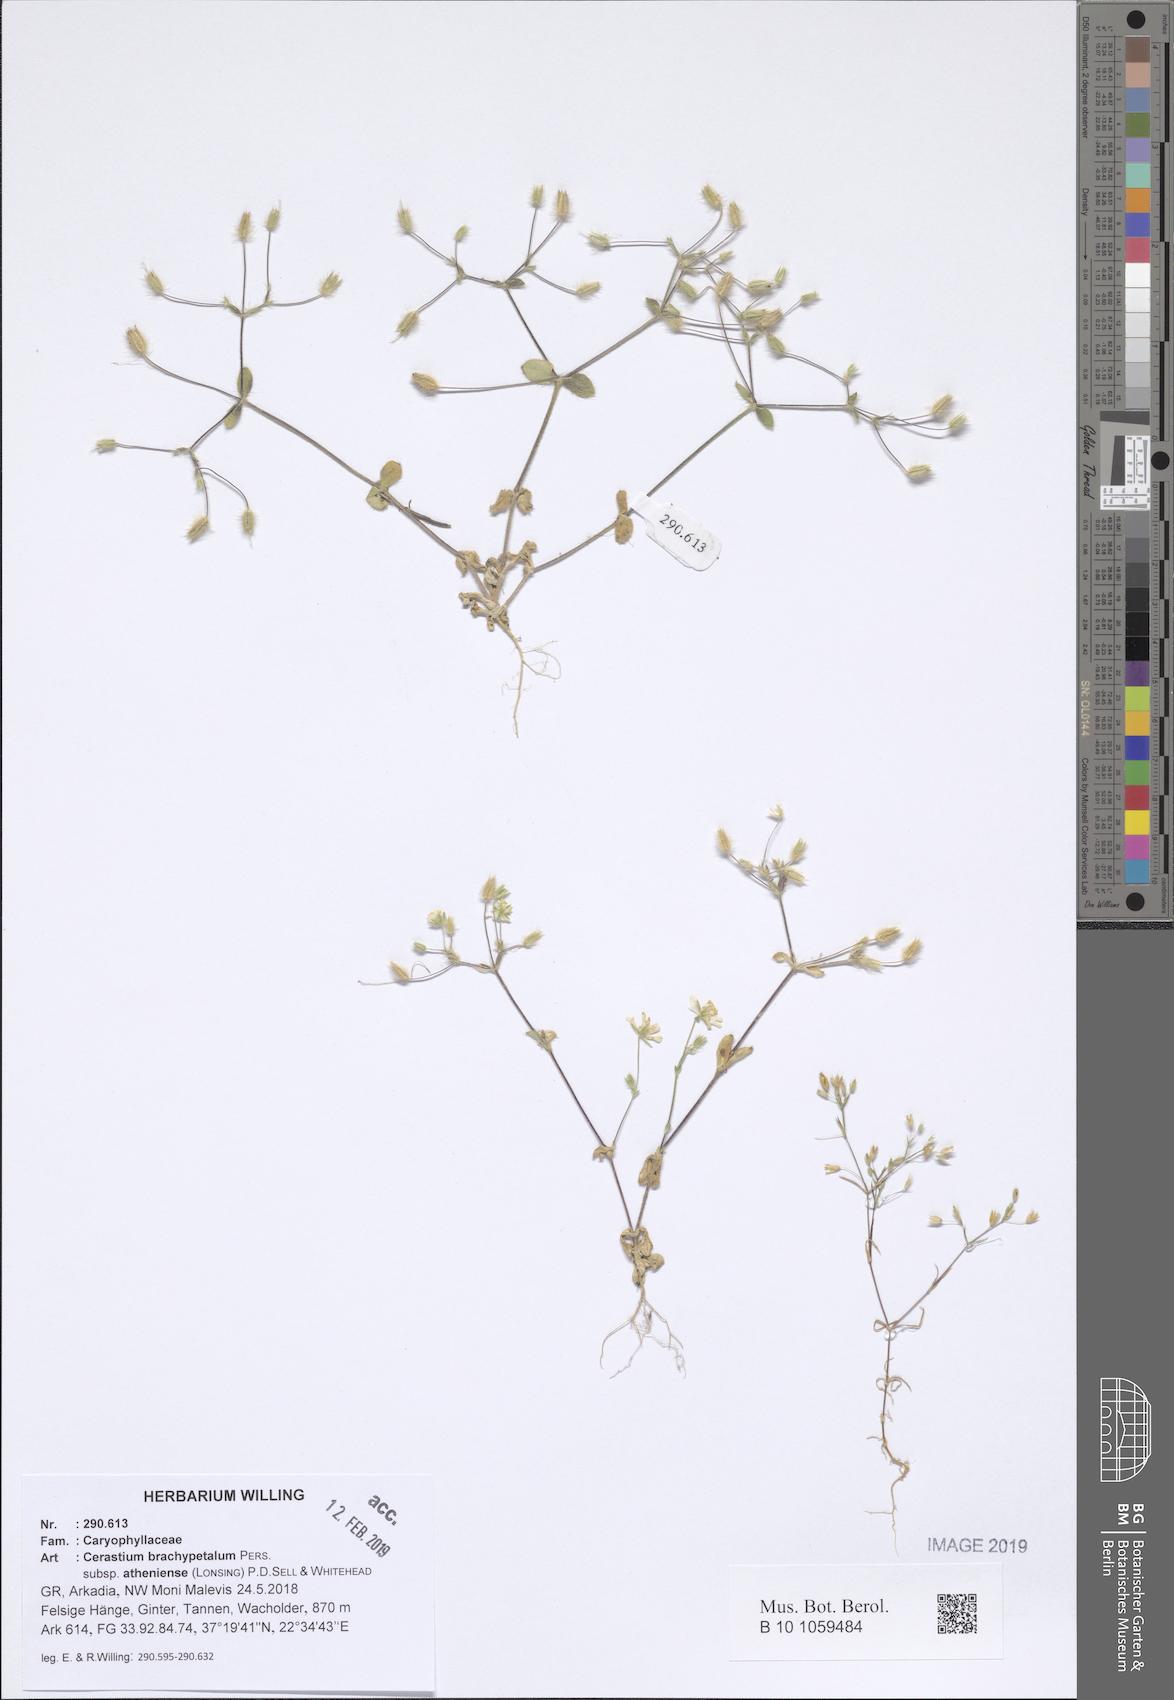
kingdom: Plantae
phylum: Tracheophyta
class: Magnoliopsida
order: Caryophyllales
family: Caryophyllaceae
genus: Cerastium
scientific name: Cerastium brachypetalum
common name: Grey mouse-ear
